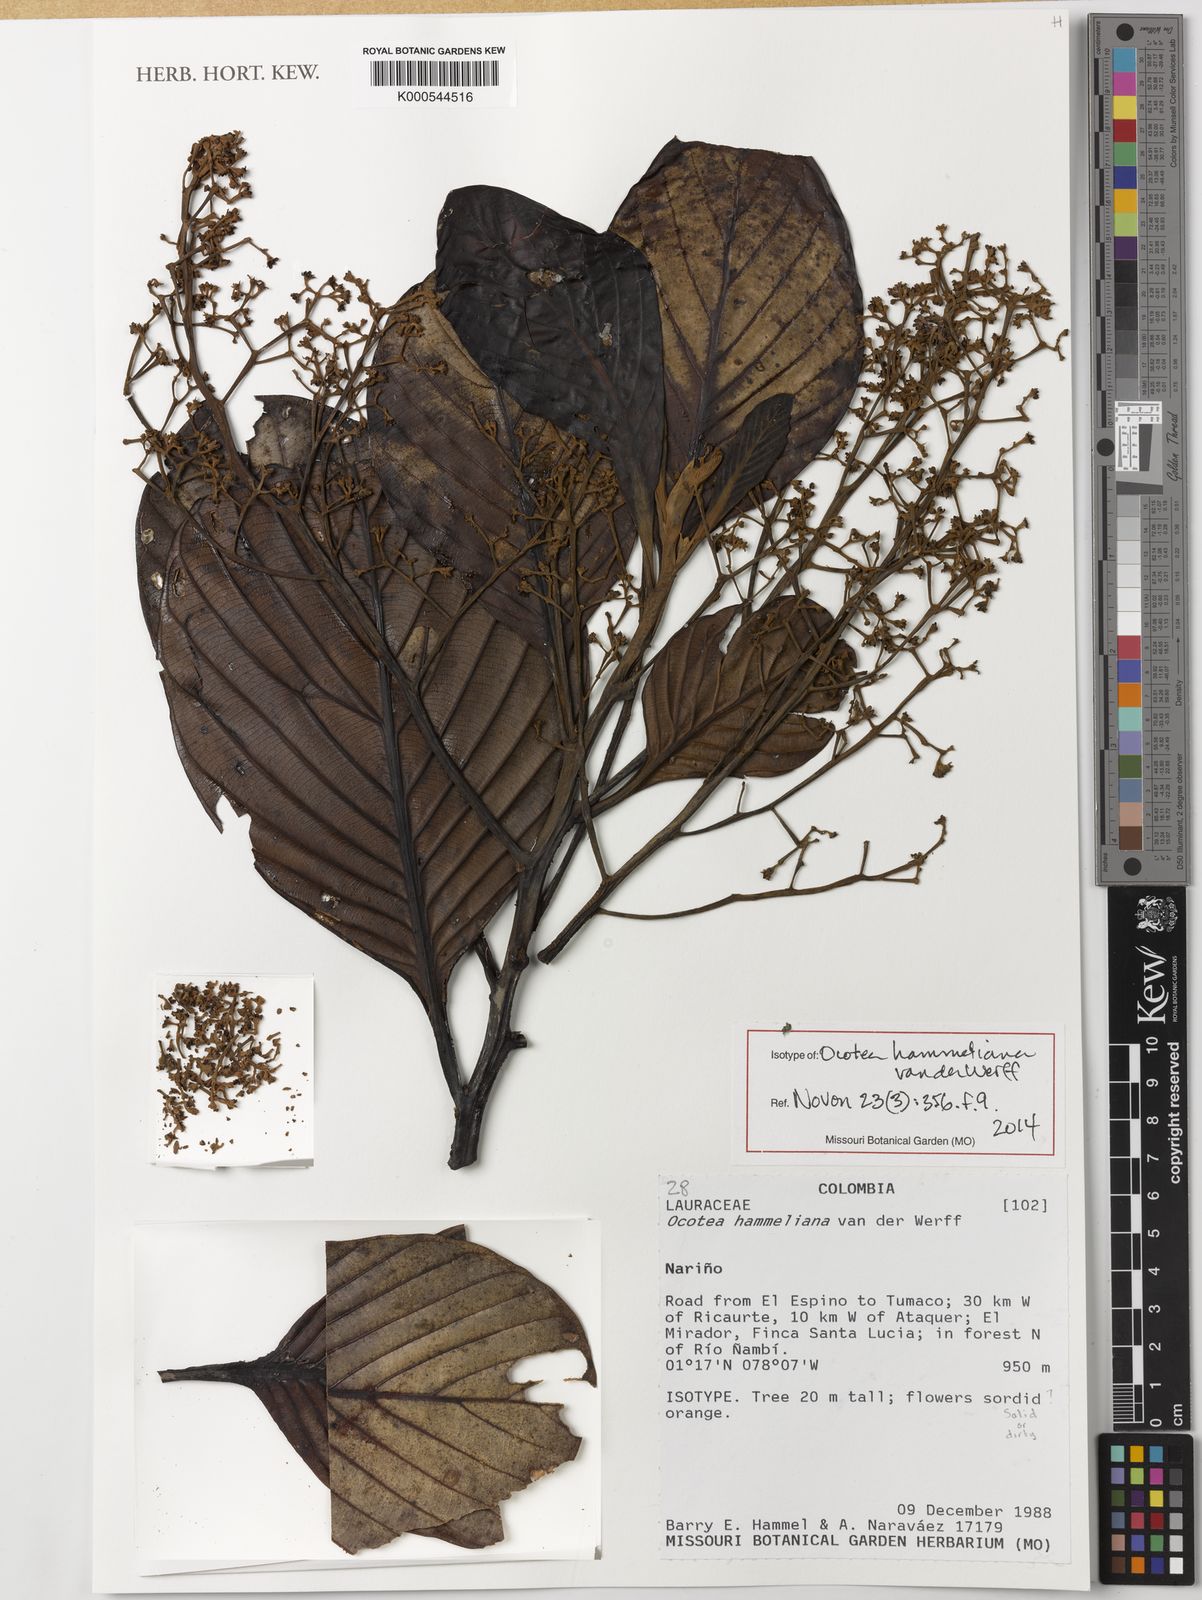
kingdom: Plantae
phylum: Tracheophyta
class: Magnoliopsida
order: Laurales
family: Lauraceae
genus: Ocotea
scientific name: Ocotea hammeliana
